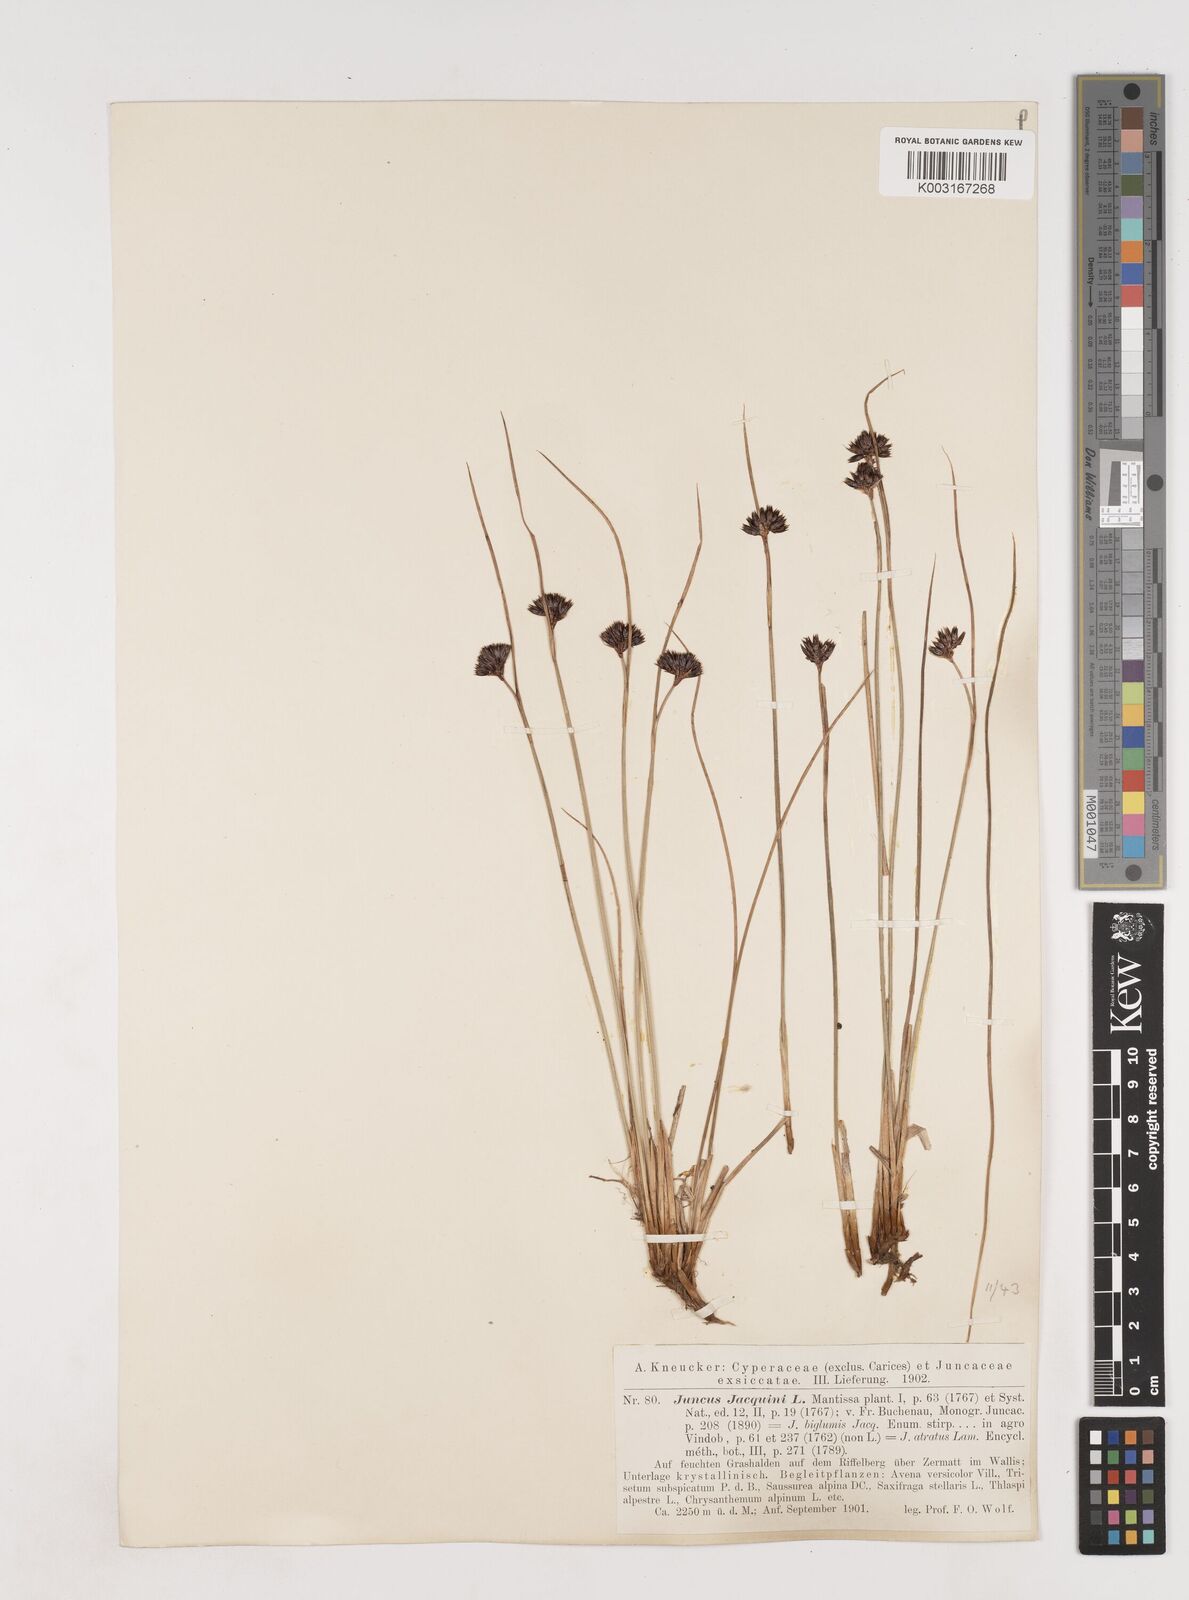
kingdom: Plantae
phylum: Tracheophyta
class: Liliopsida
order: Poales
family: Juncaceae
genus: Juncus
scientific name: Juncus jacquinii
